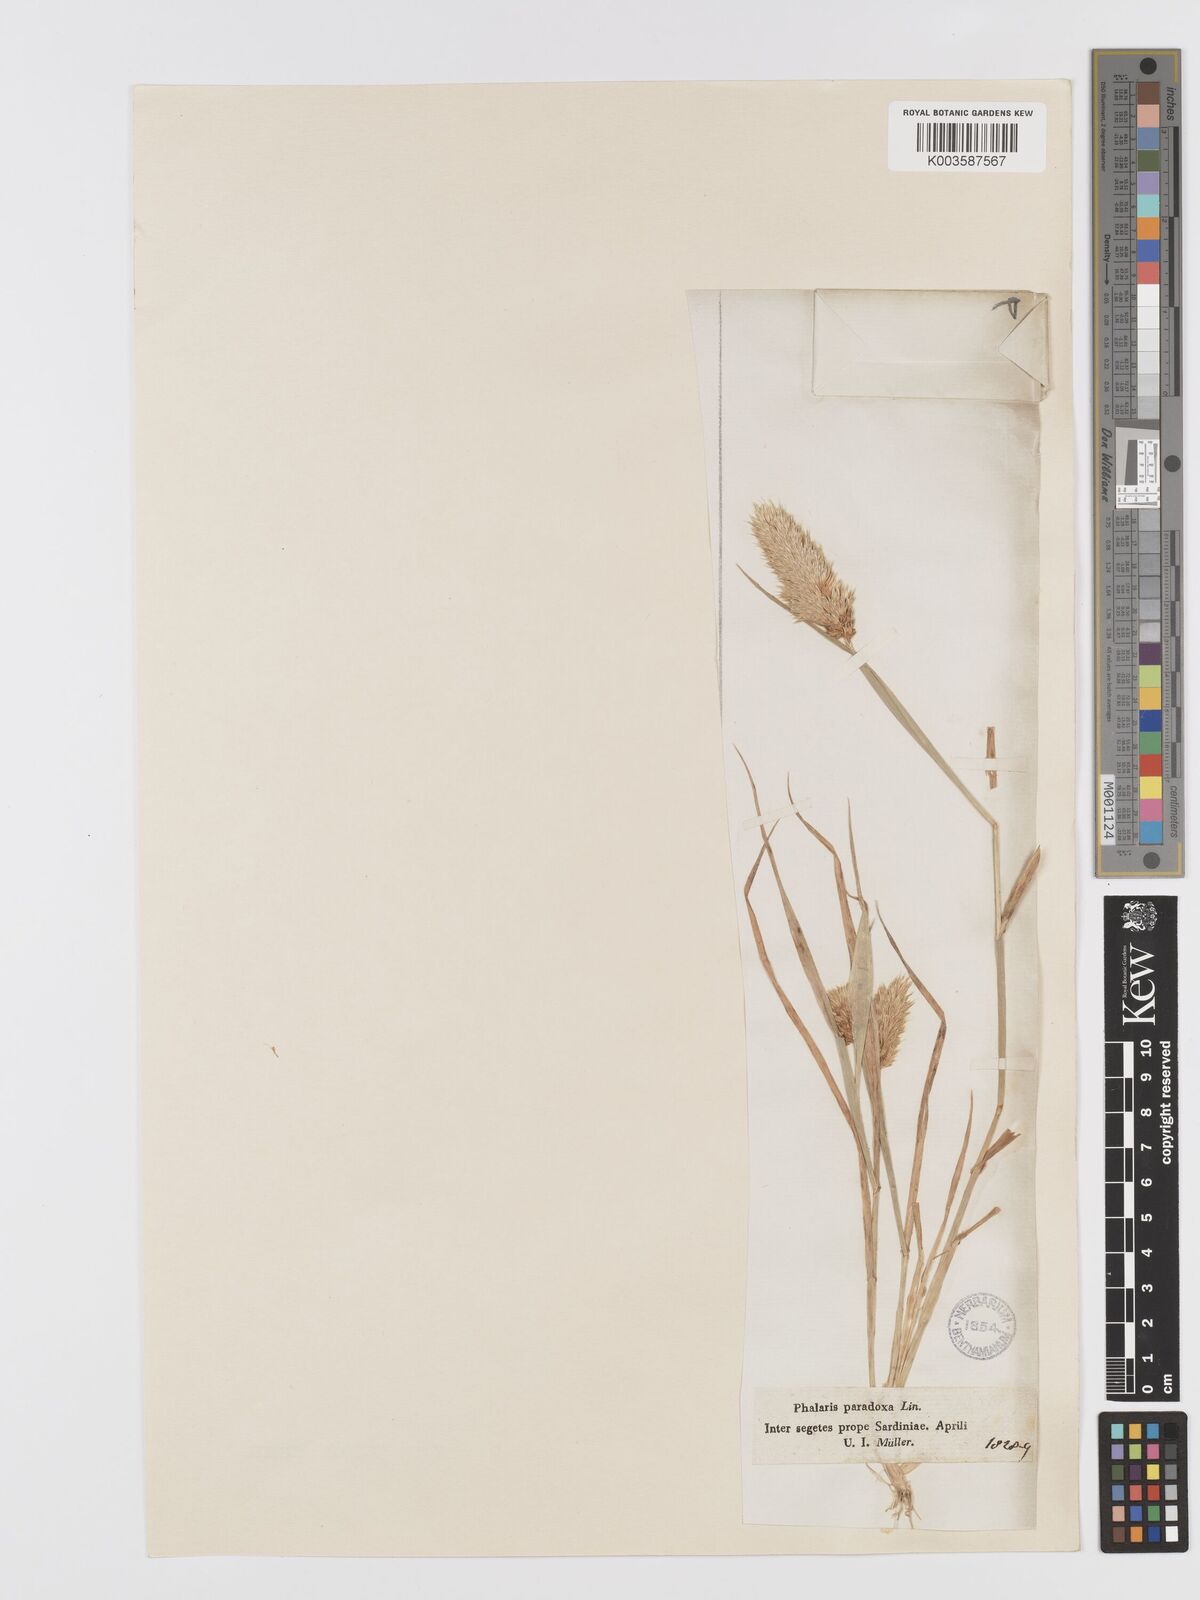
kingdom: Plantae
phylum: Tracheophyta
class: Liliopsida
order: Poales
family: Poaceae
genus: Phalaris
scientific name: Phalaris paradoxa
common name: Awned canary-grass
